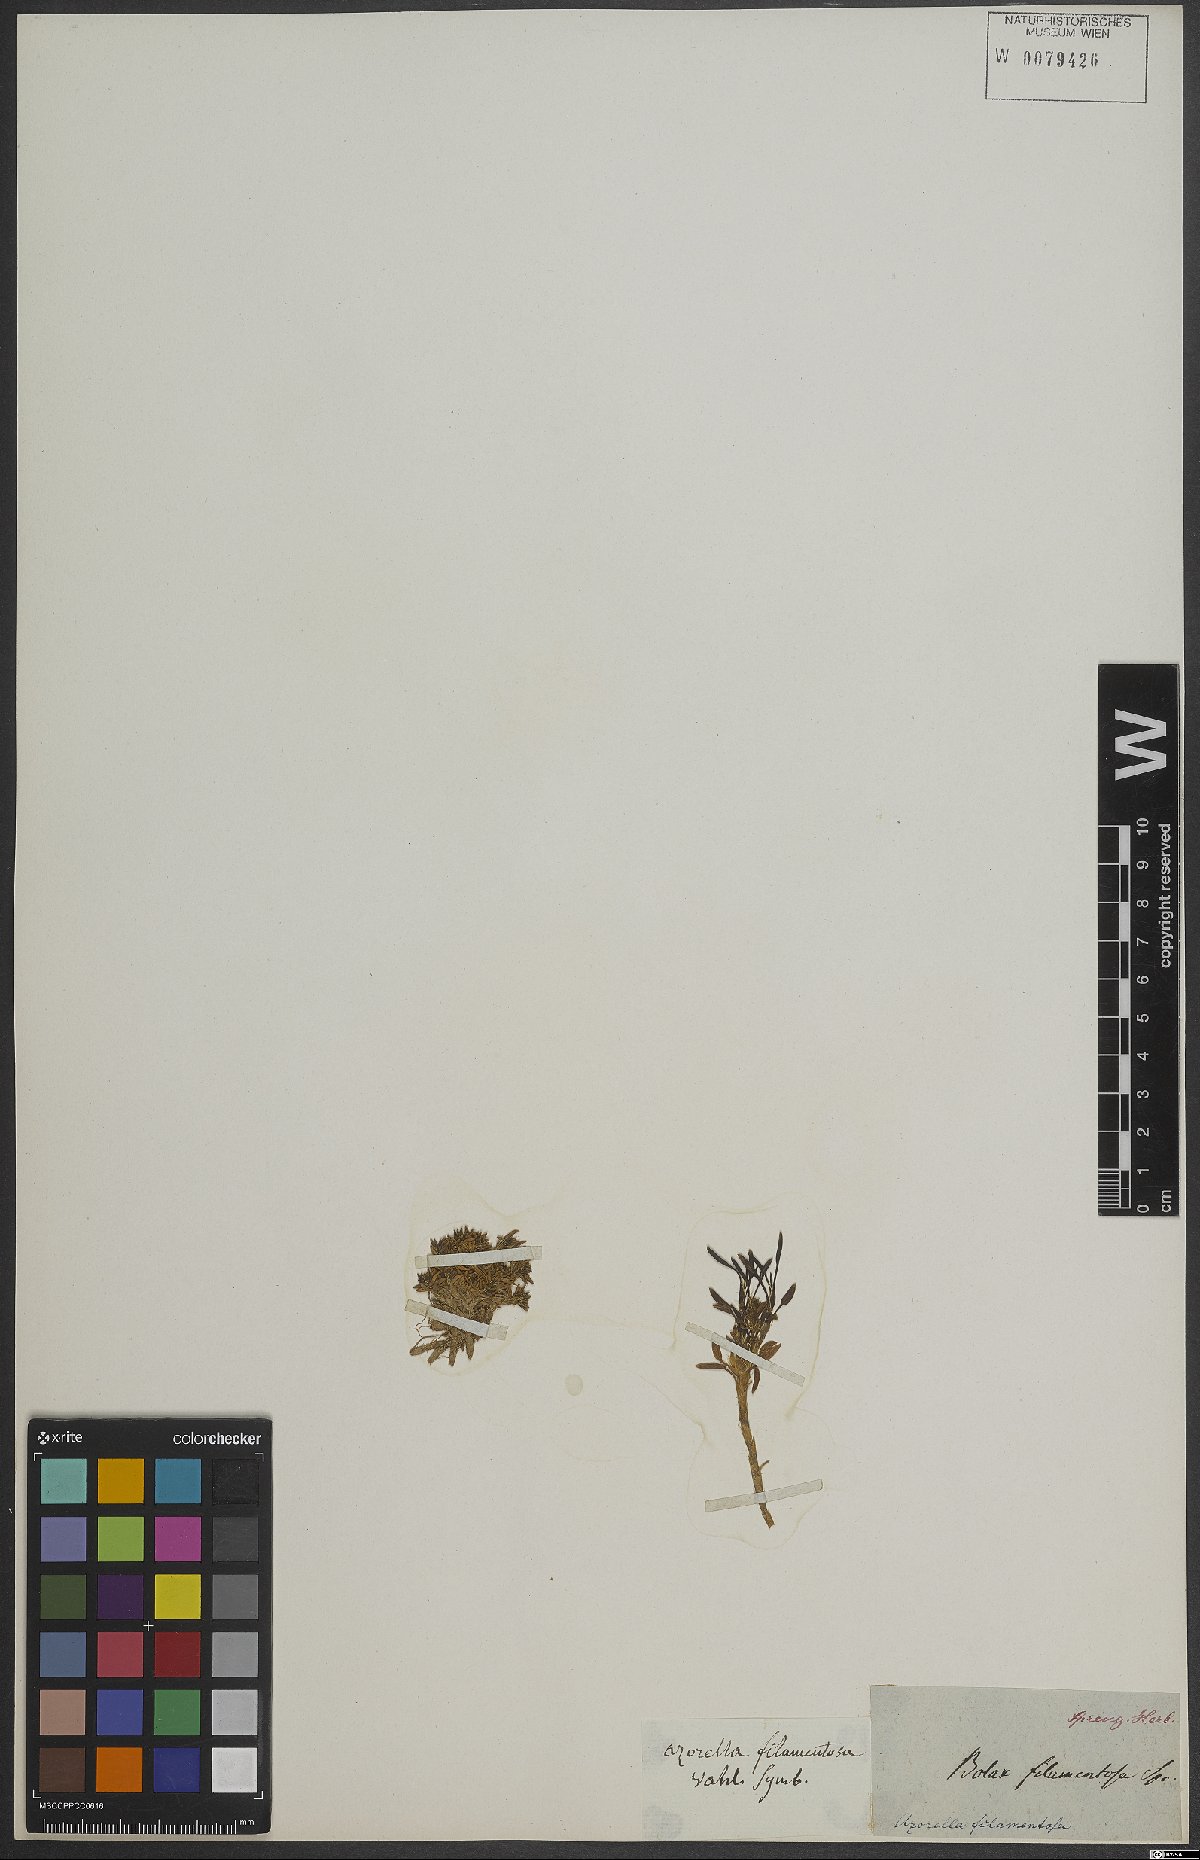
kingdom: Plantae
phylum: Tracheophyta
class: Magnoliopsida
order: Apiales
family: Apiaceae
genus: Azorella
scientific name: Azorella filamentosa
